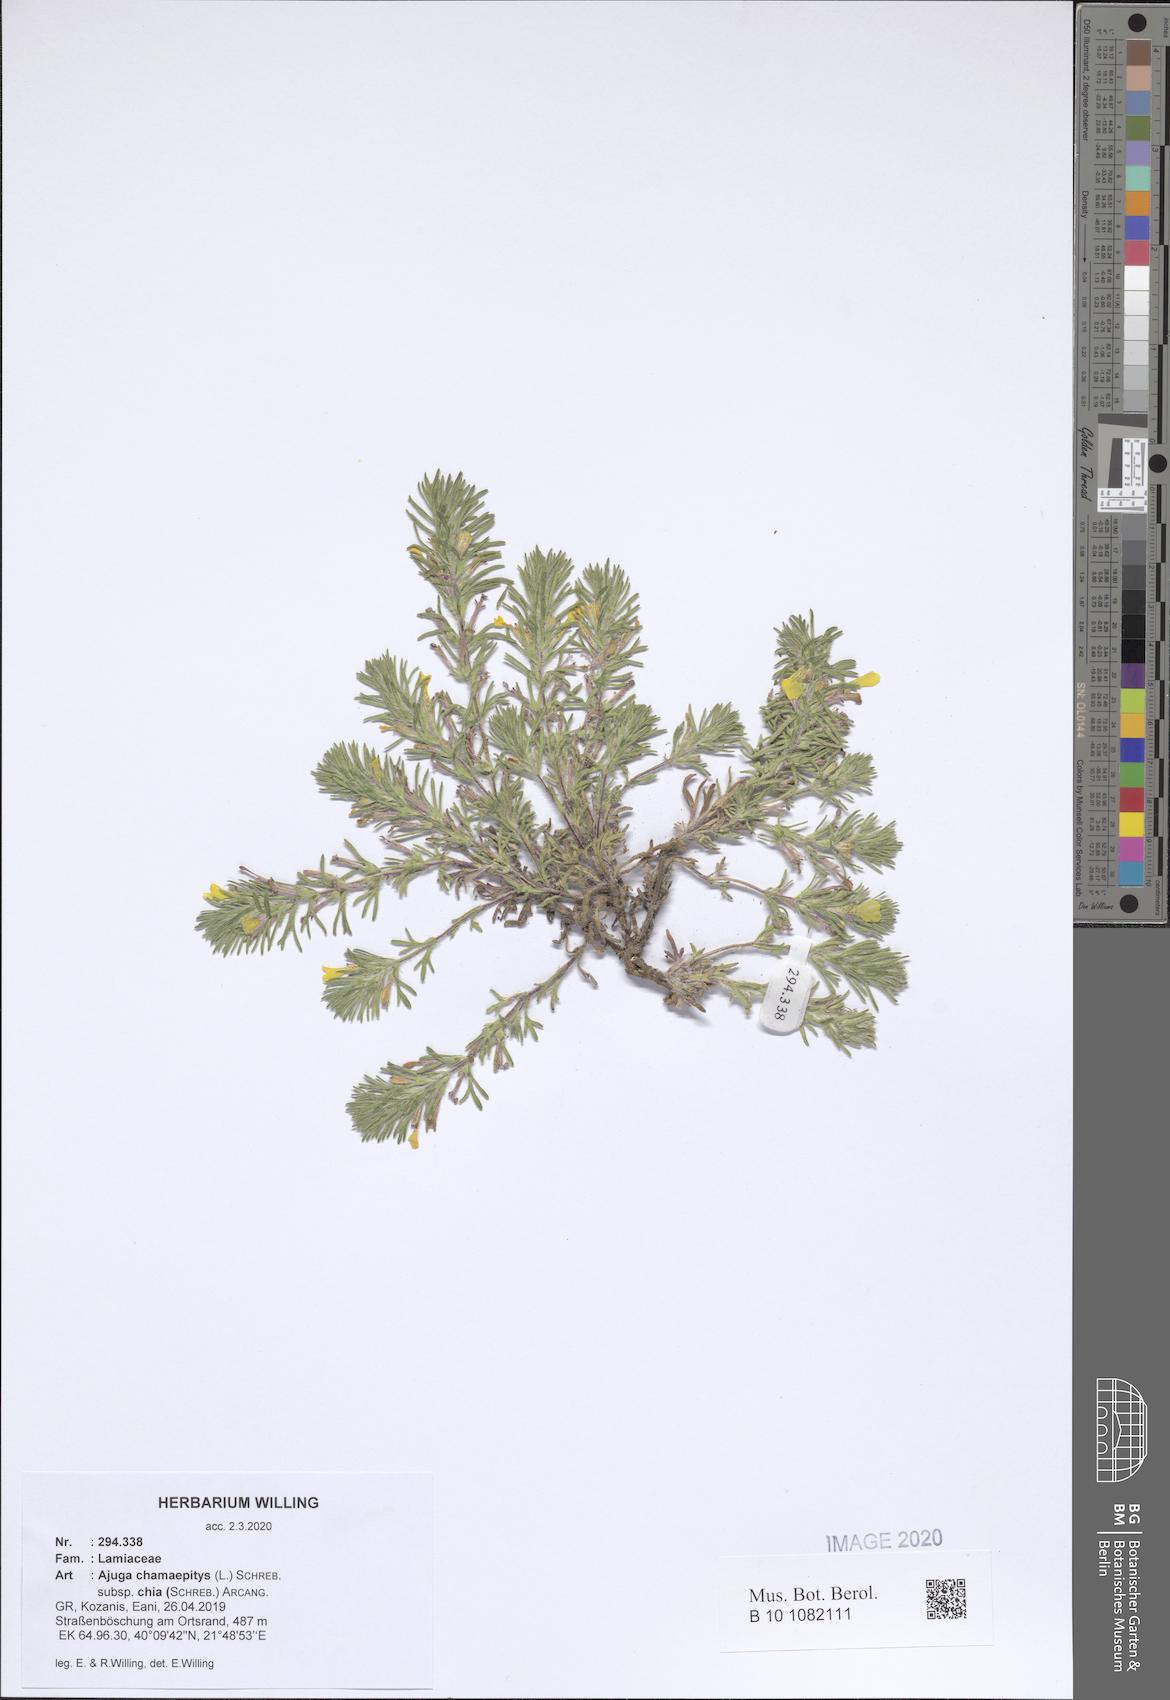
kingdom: Plantae
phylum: Tracheophyta
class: Magnoliopsida
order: Lamiales
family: Lamiaceae
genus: Ajuga
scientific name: Ajuga chamaepitys
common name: Ground-pine
